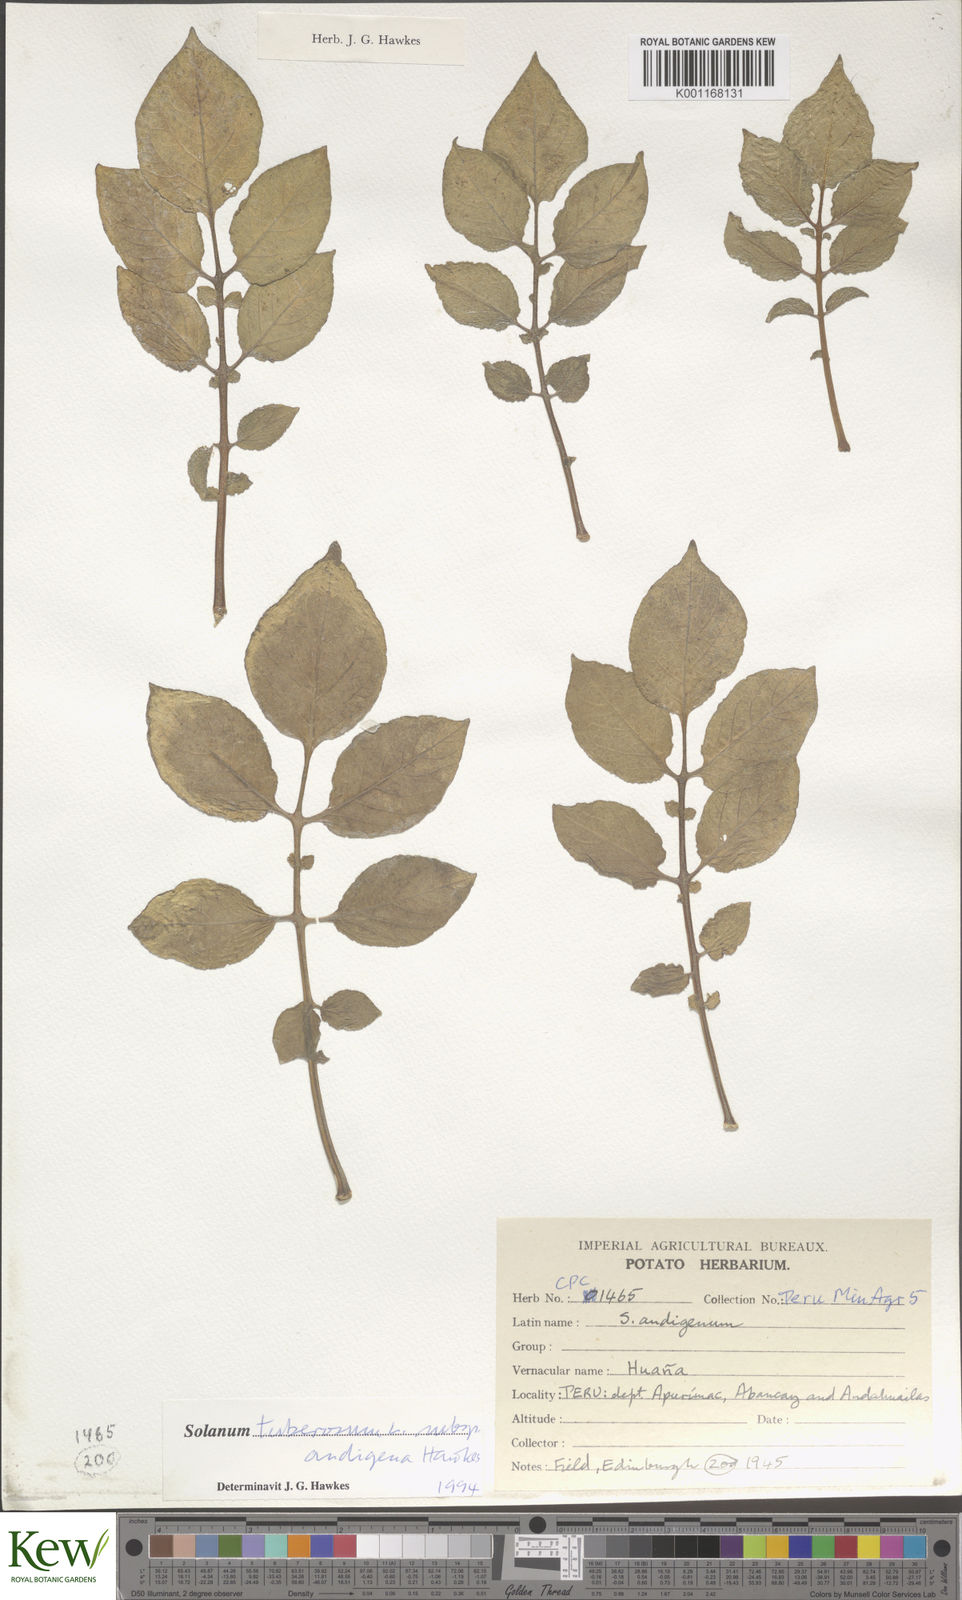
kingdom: Plantae
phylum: Tracheophyta
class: Magnoliopsida
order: Solanales
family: Solanaceae
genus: Solanum
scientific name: Solanum tuberosum
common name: Potato
